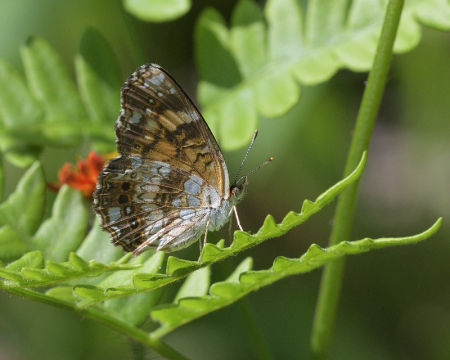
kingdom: Animalia
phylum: Arthropoda
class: Insecta
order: Lepidoptera
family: Nymphalidae
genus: Chlosyne
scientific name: Chlosyne nycteis
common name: Silvery Checkerspot
